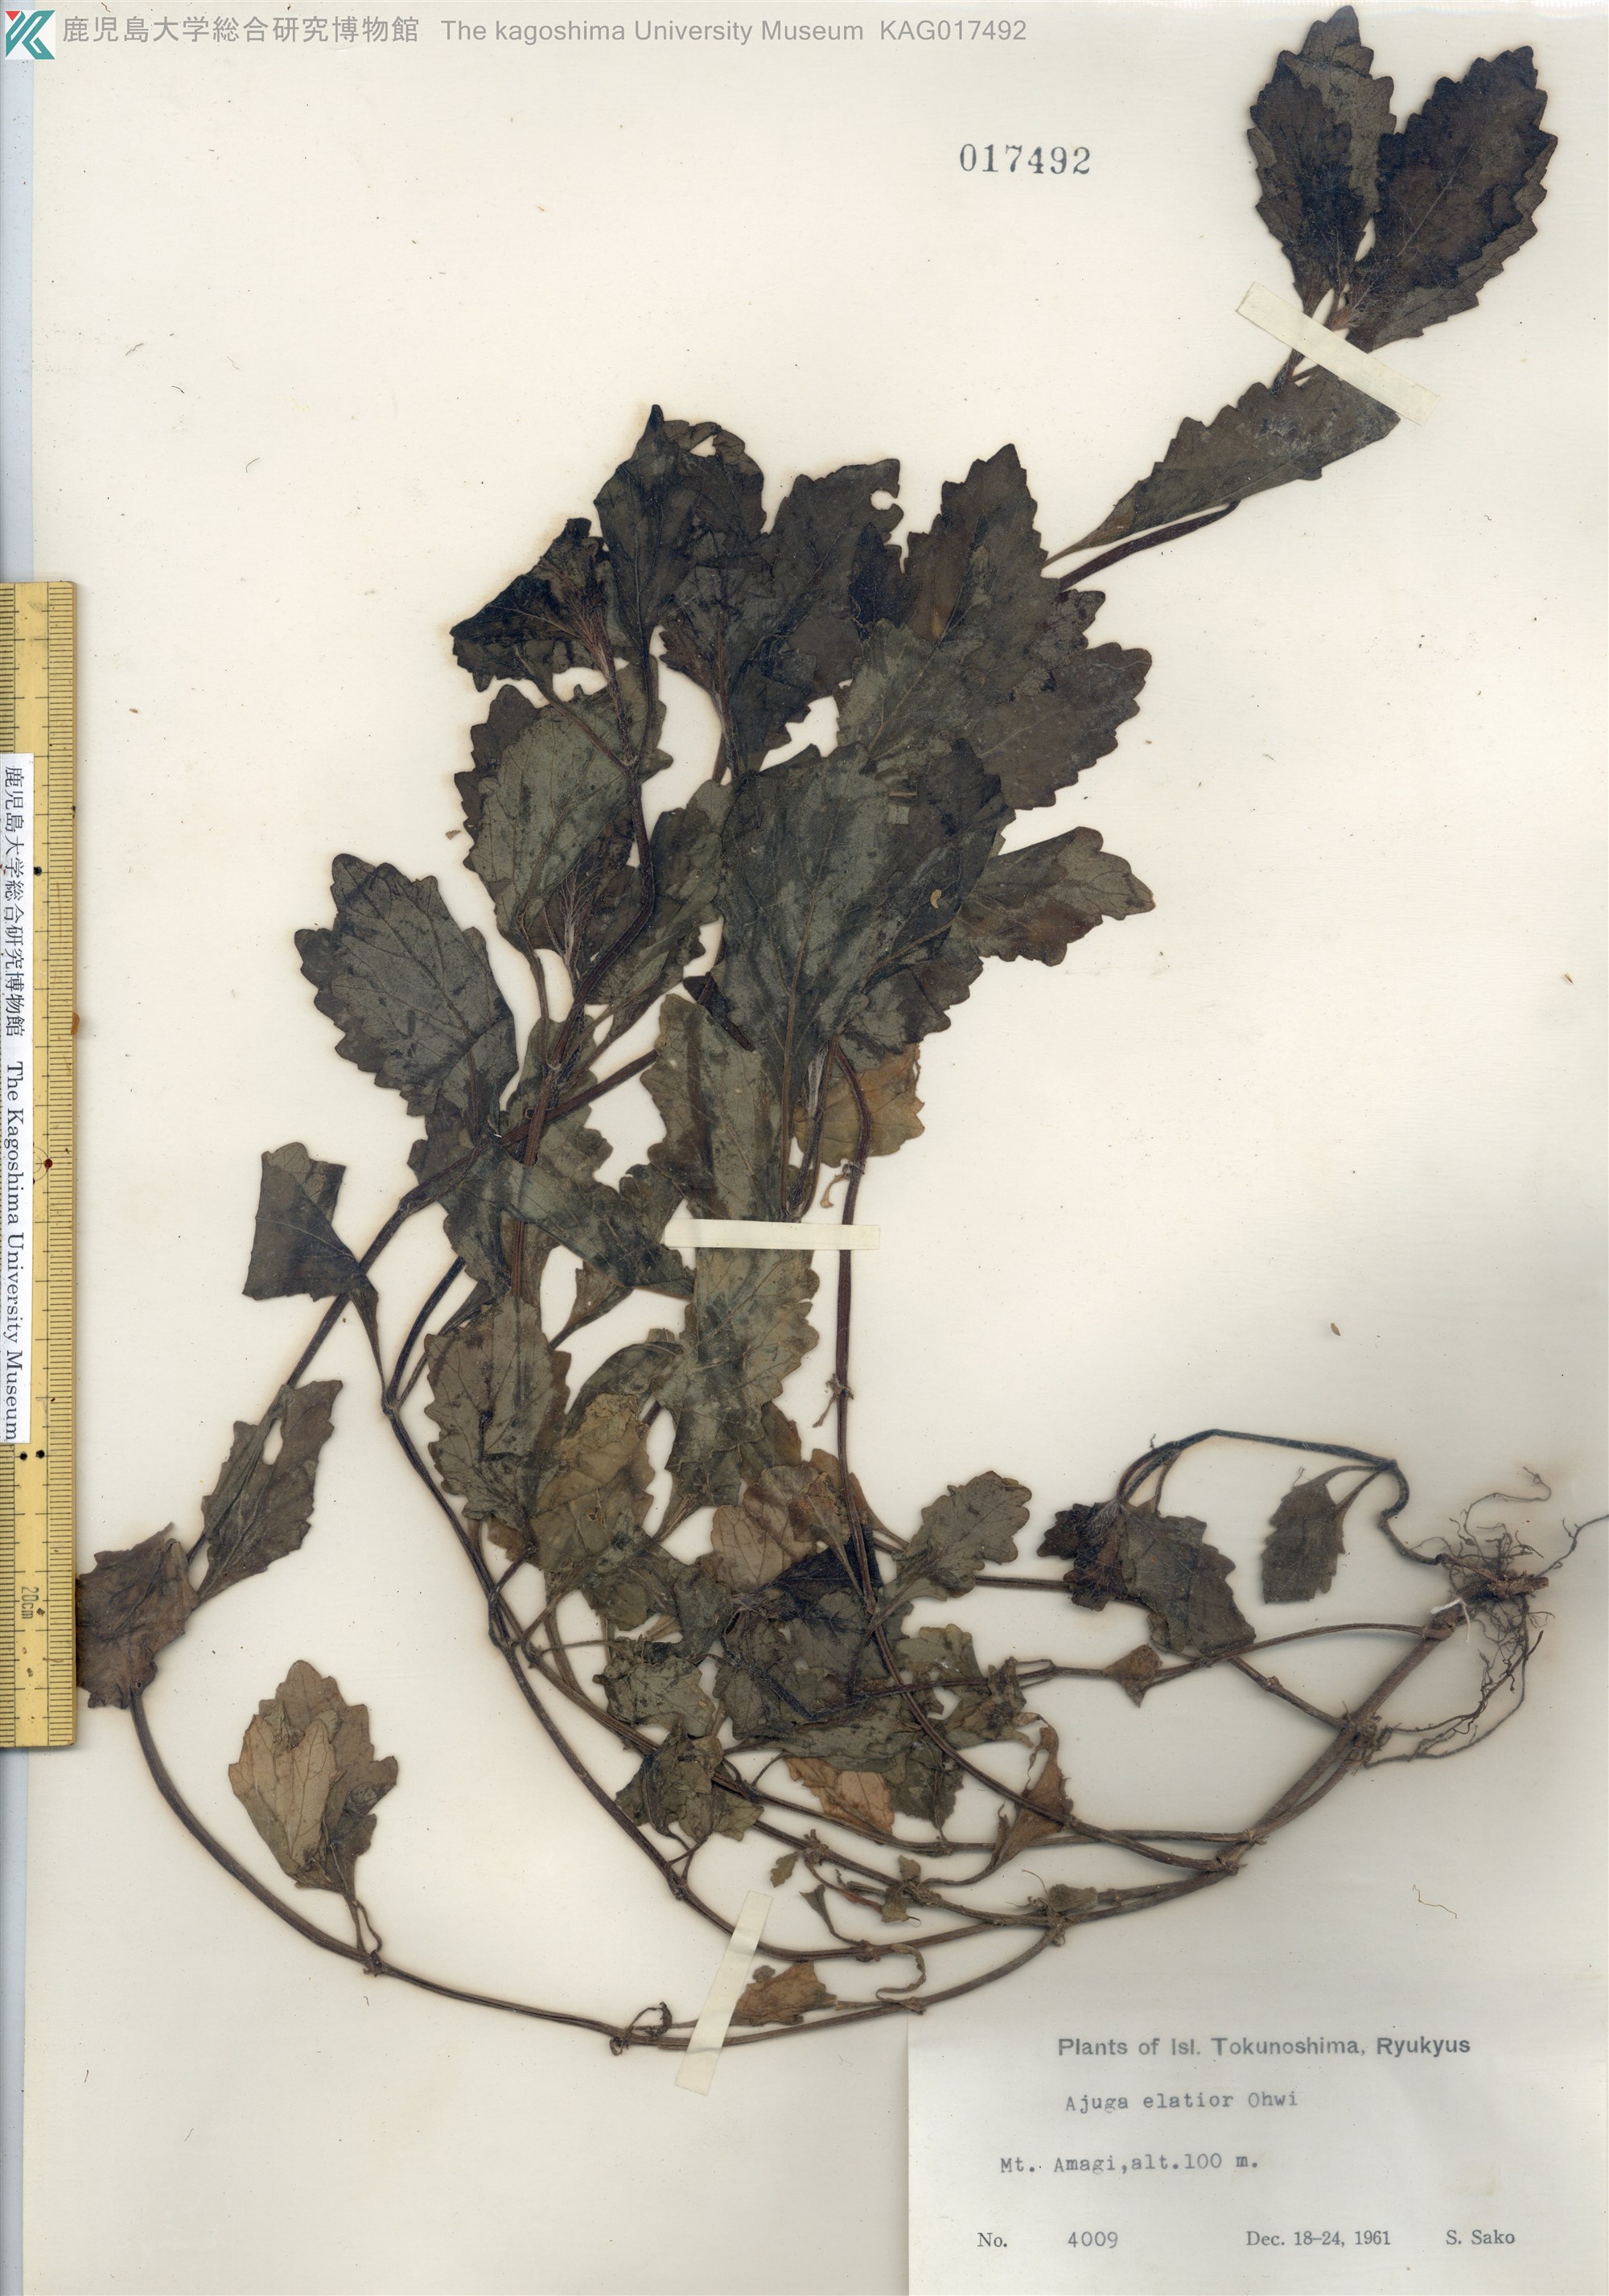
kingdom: Plantae
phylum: Tracheophyta
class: Magnoliopsida
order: Lamiales
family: Lamiaceae
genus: Ajuga
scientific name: Ajuga dictyocarpa
